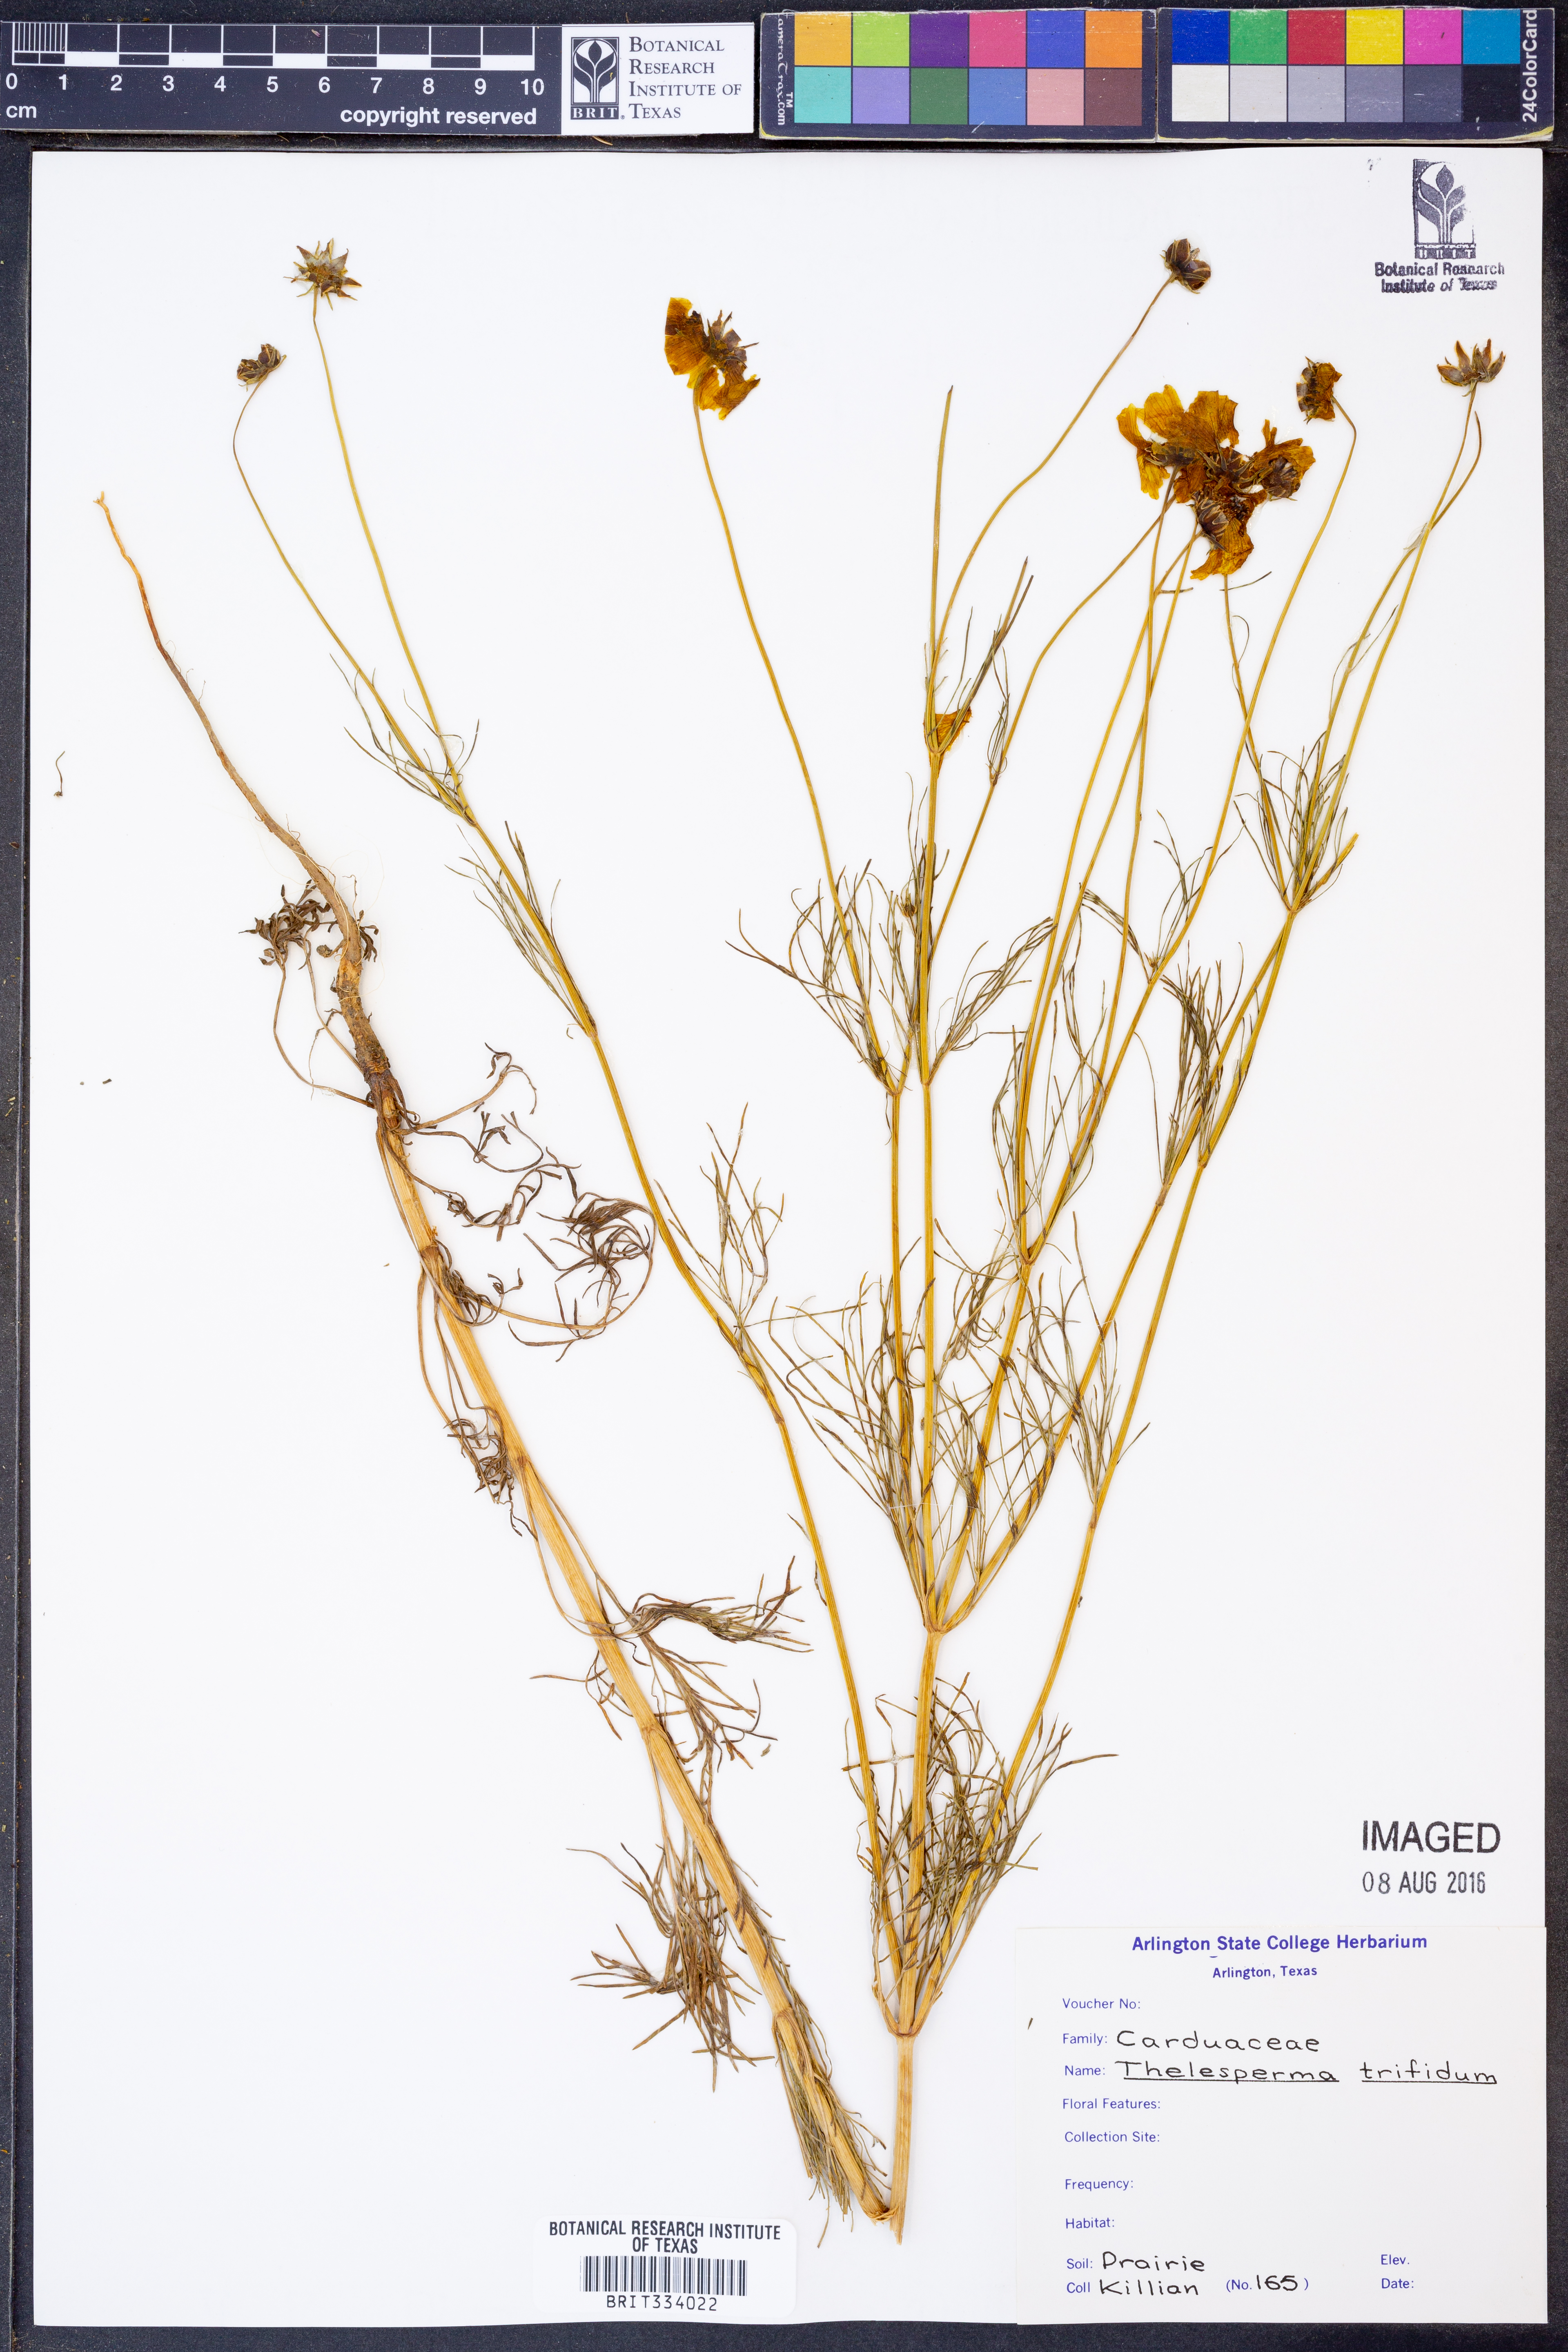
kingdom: Plantae
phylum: Tracheophyta
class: Magnoliopsida
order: Asterales
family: Asteraceae
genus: Thelesperma
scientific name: Thelesperma filifolium
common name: Stiff greenthread
